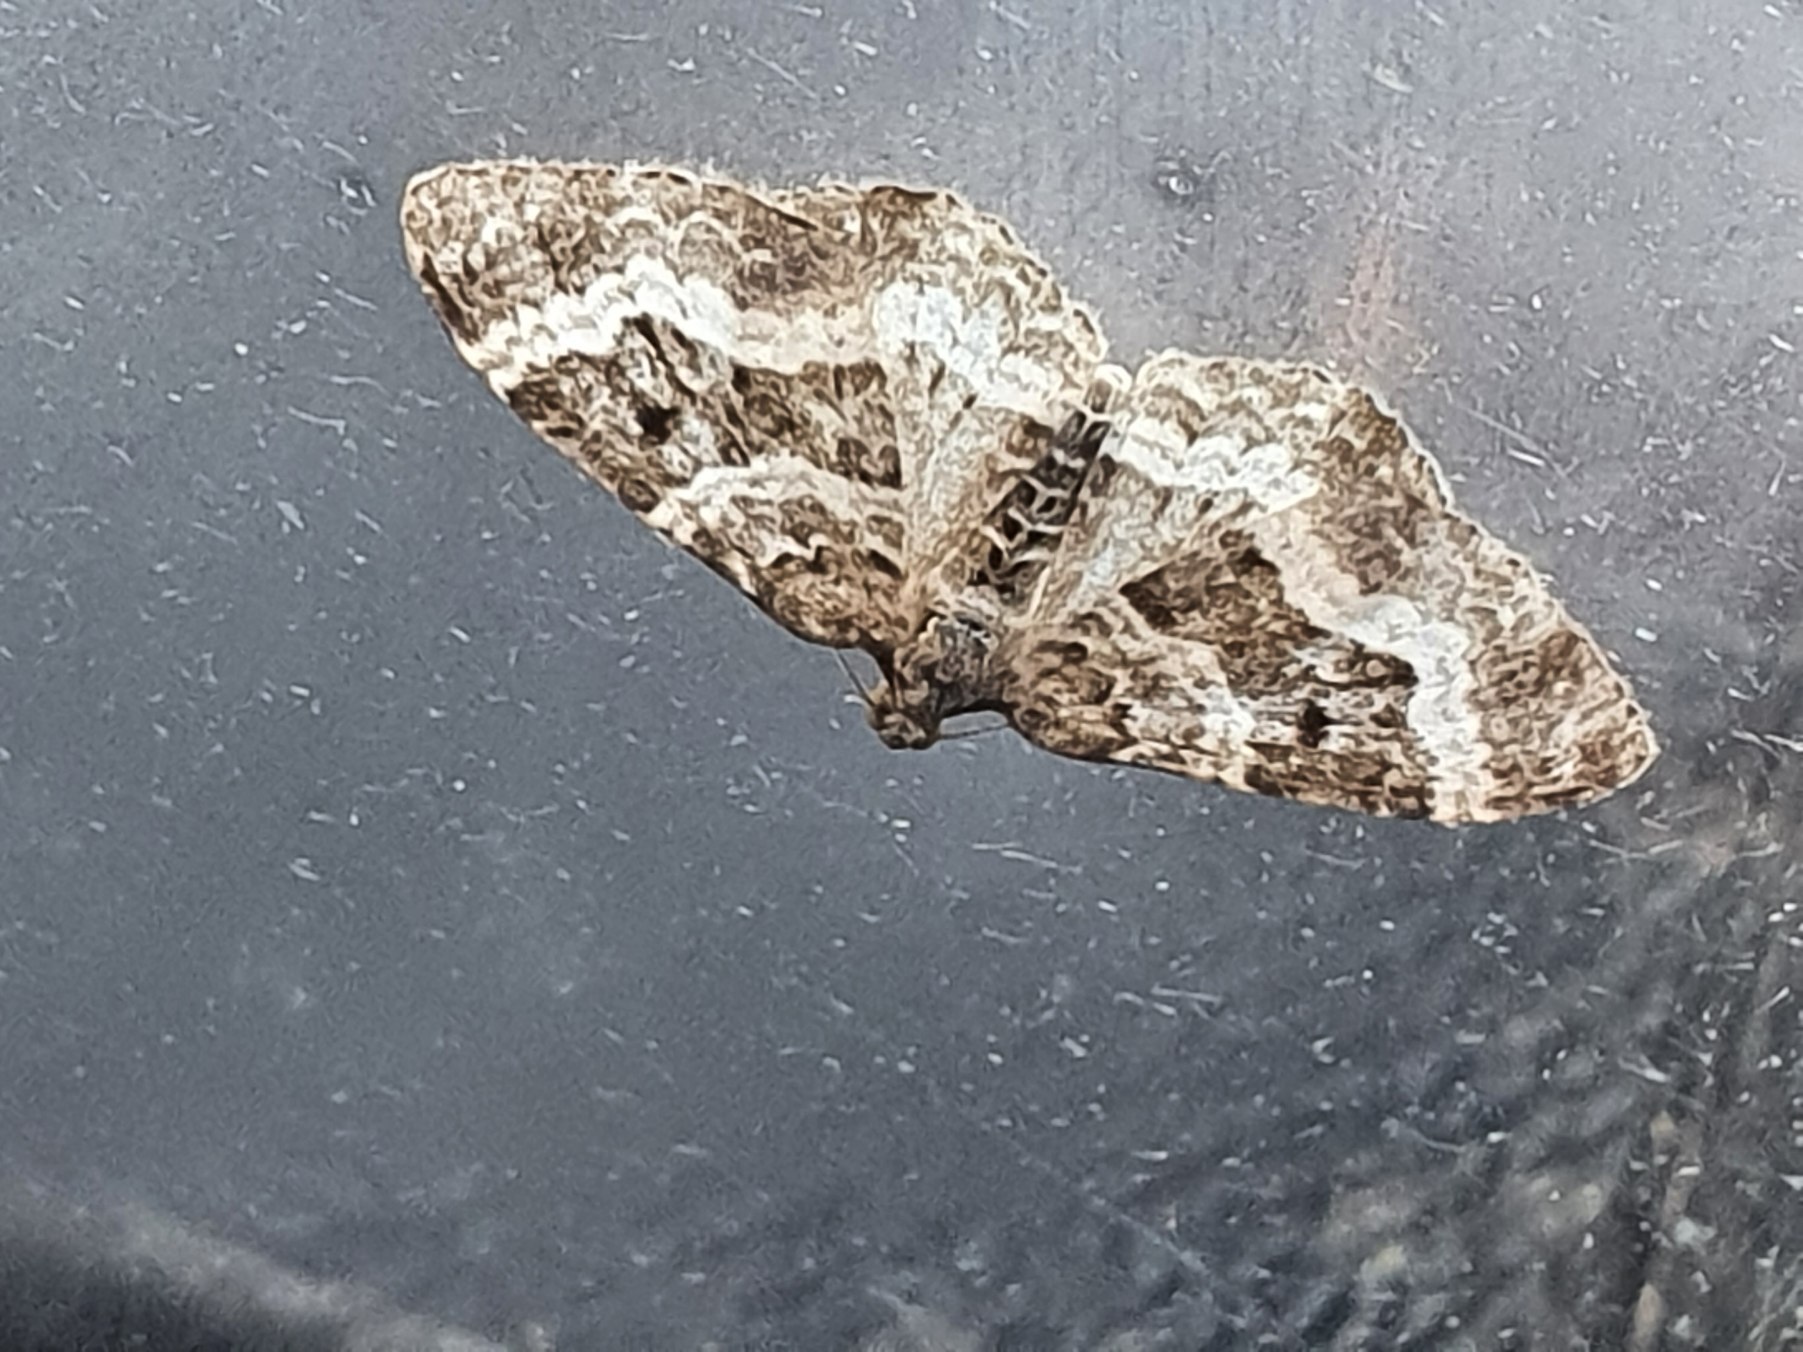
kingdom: Animalia
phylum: Arthropoda
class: Insecta
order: Lepidoptera
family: Geometridae
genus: Epirrhoe
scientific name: Epirrhoe alternata
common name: Almindelig bladmåler
